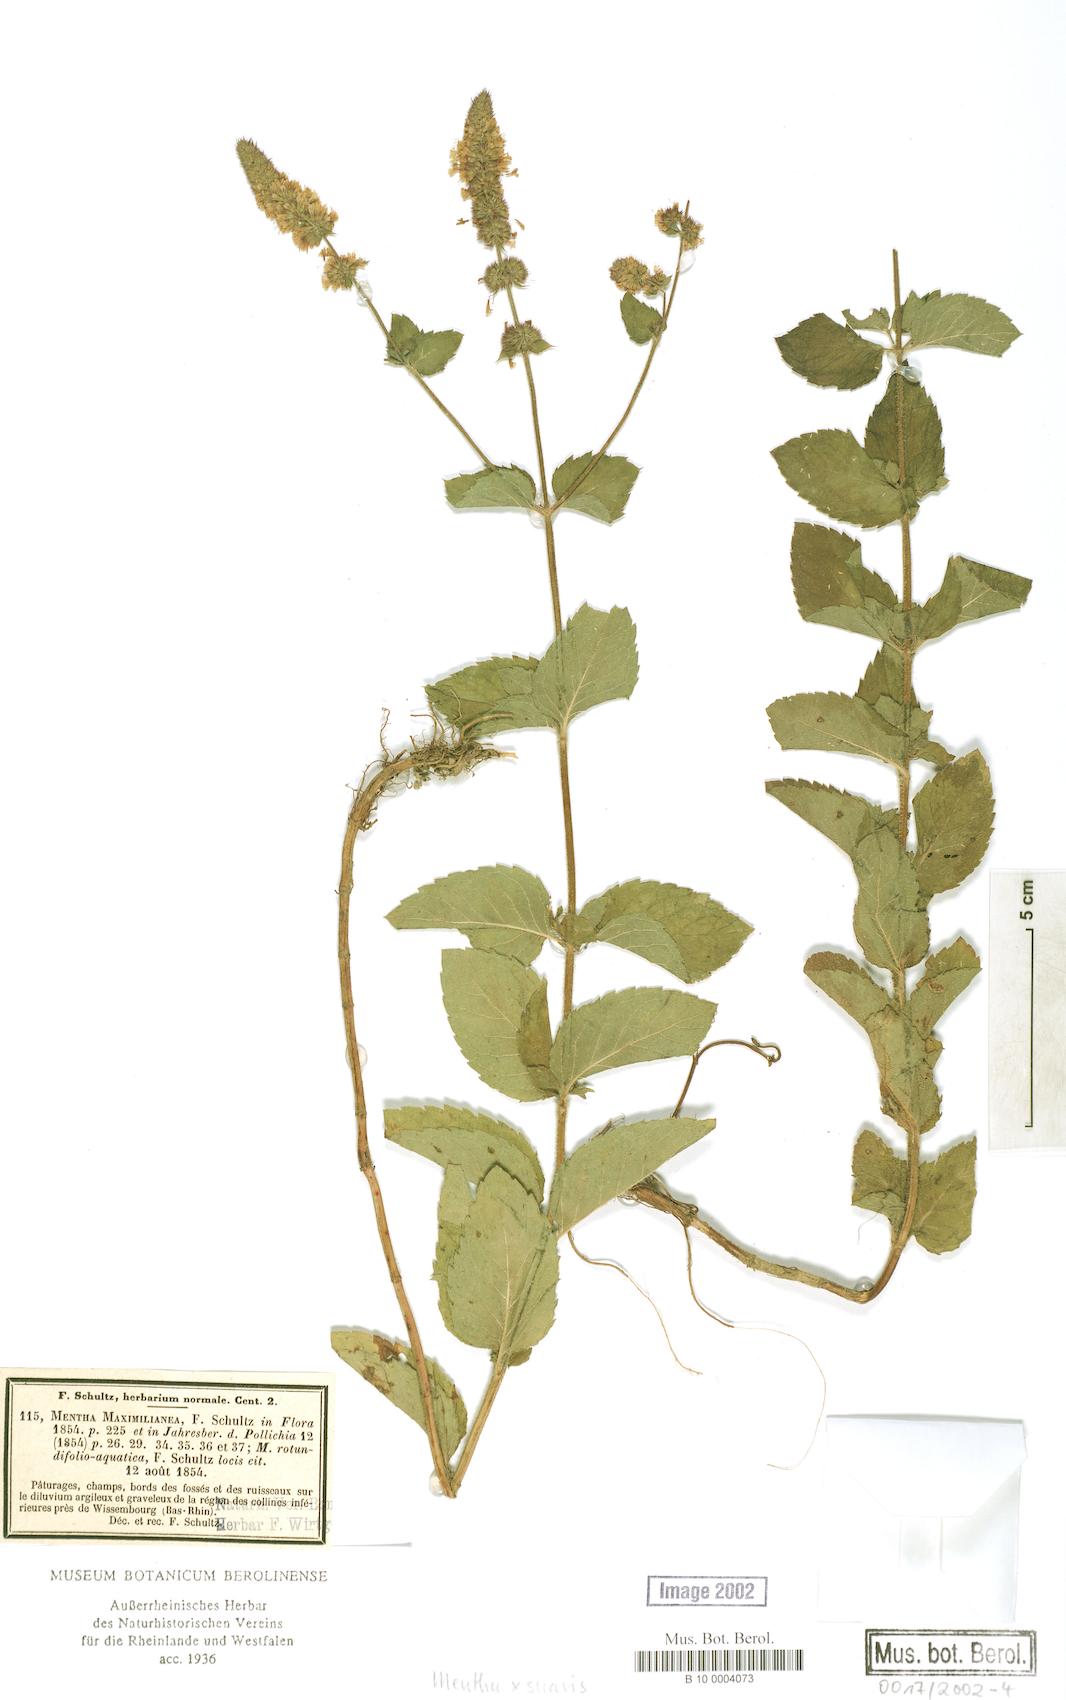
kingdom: Plantae
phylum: Tracheophyta
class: Magnoliopsida
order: Lamiales
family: Lamiaceae
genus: Mentha
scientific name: Mentha suavis
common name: Sweet mint
